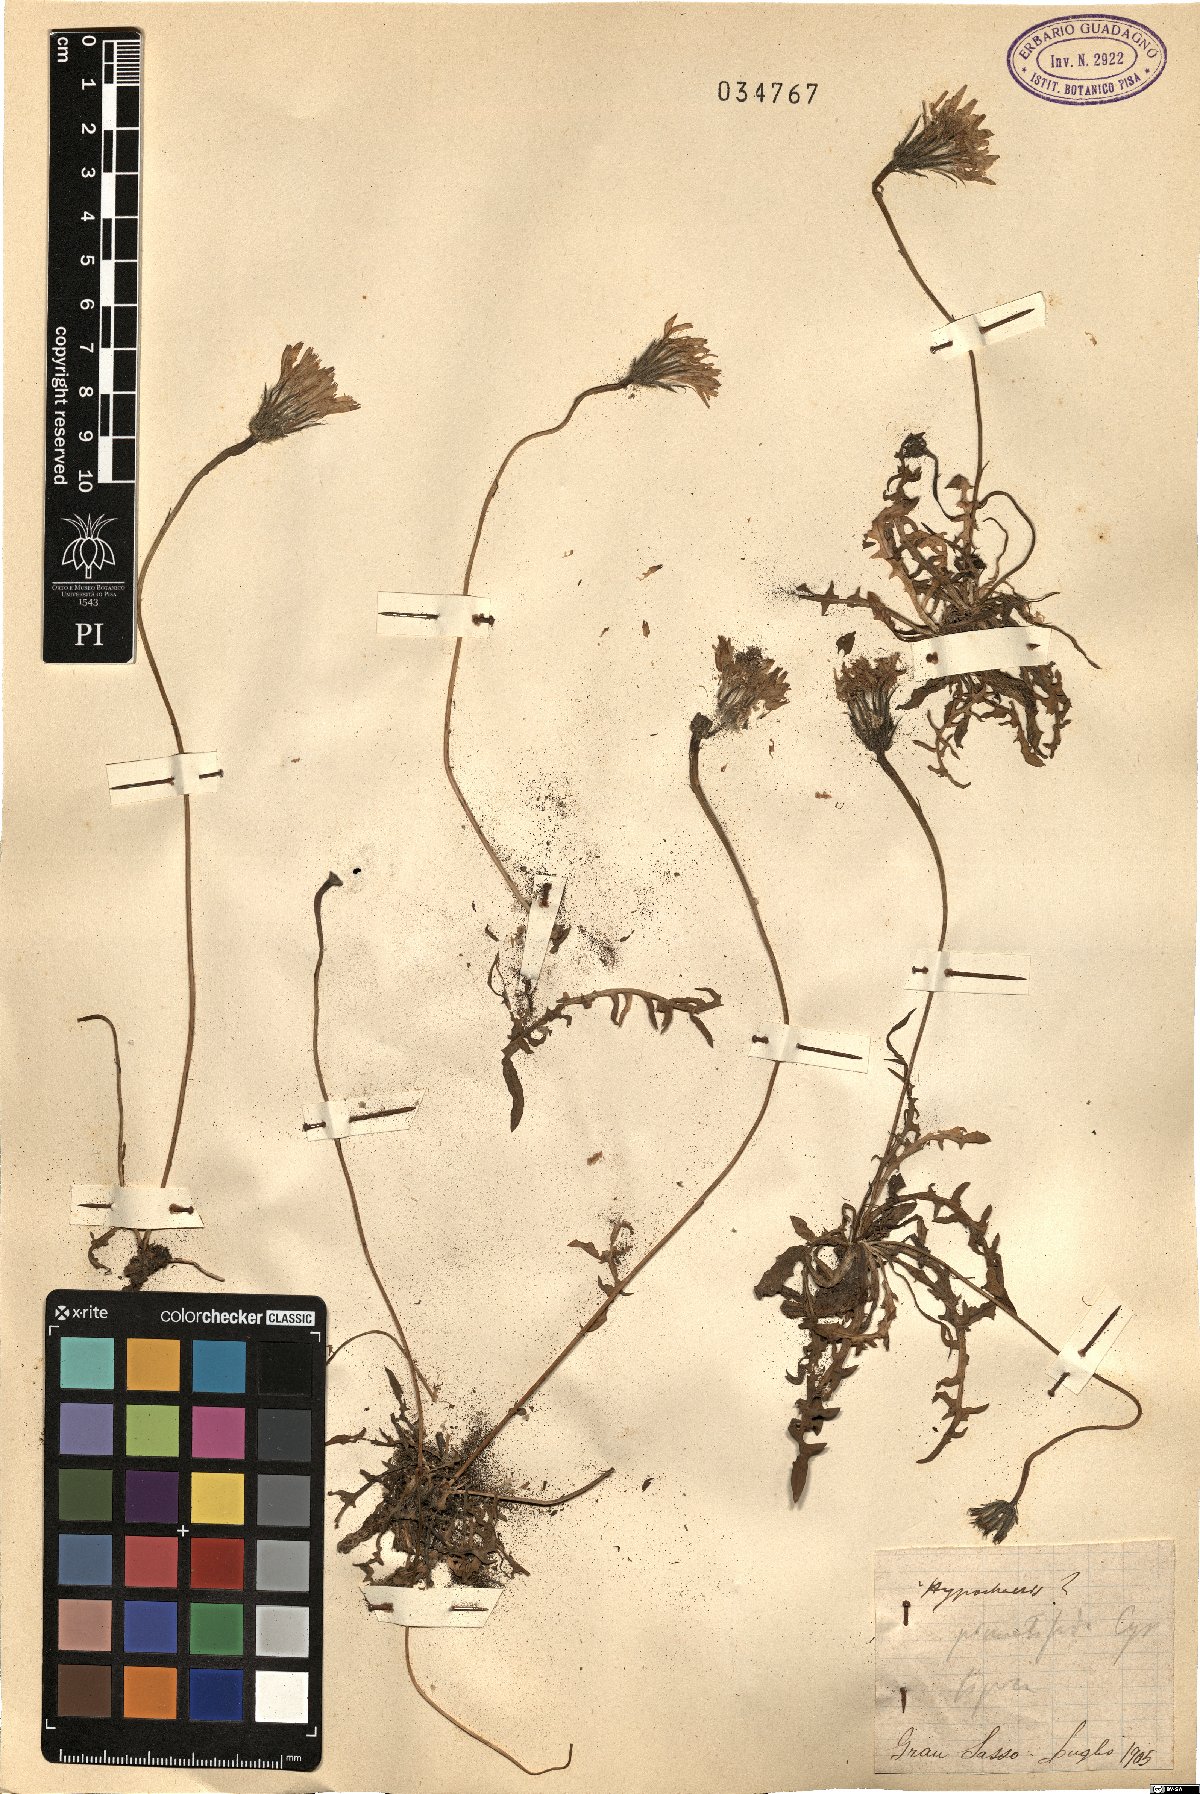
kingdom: Plantae
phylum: Tracheophyta
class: Magnoliopsida
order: Asterales
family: Asteraceae
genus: Hypochaeris
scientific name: Hypochaeris cretensis
